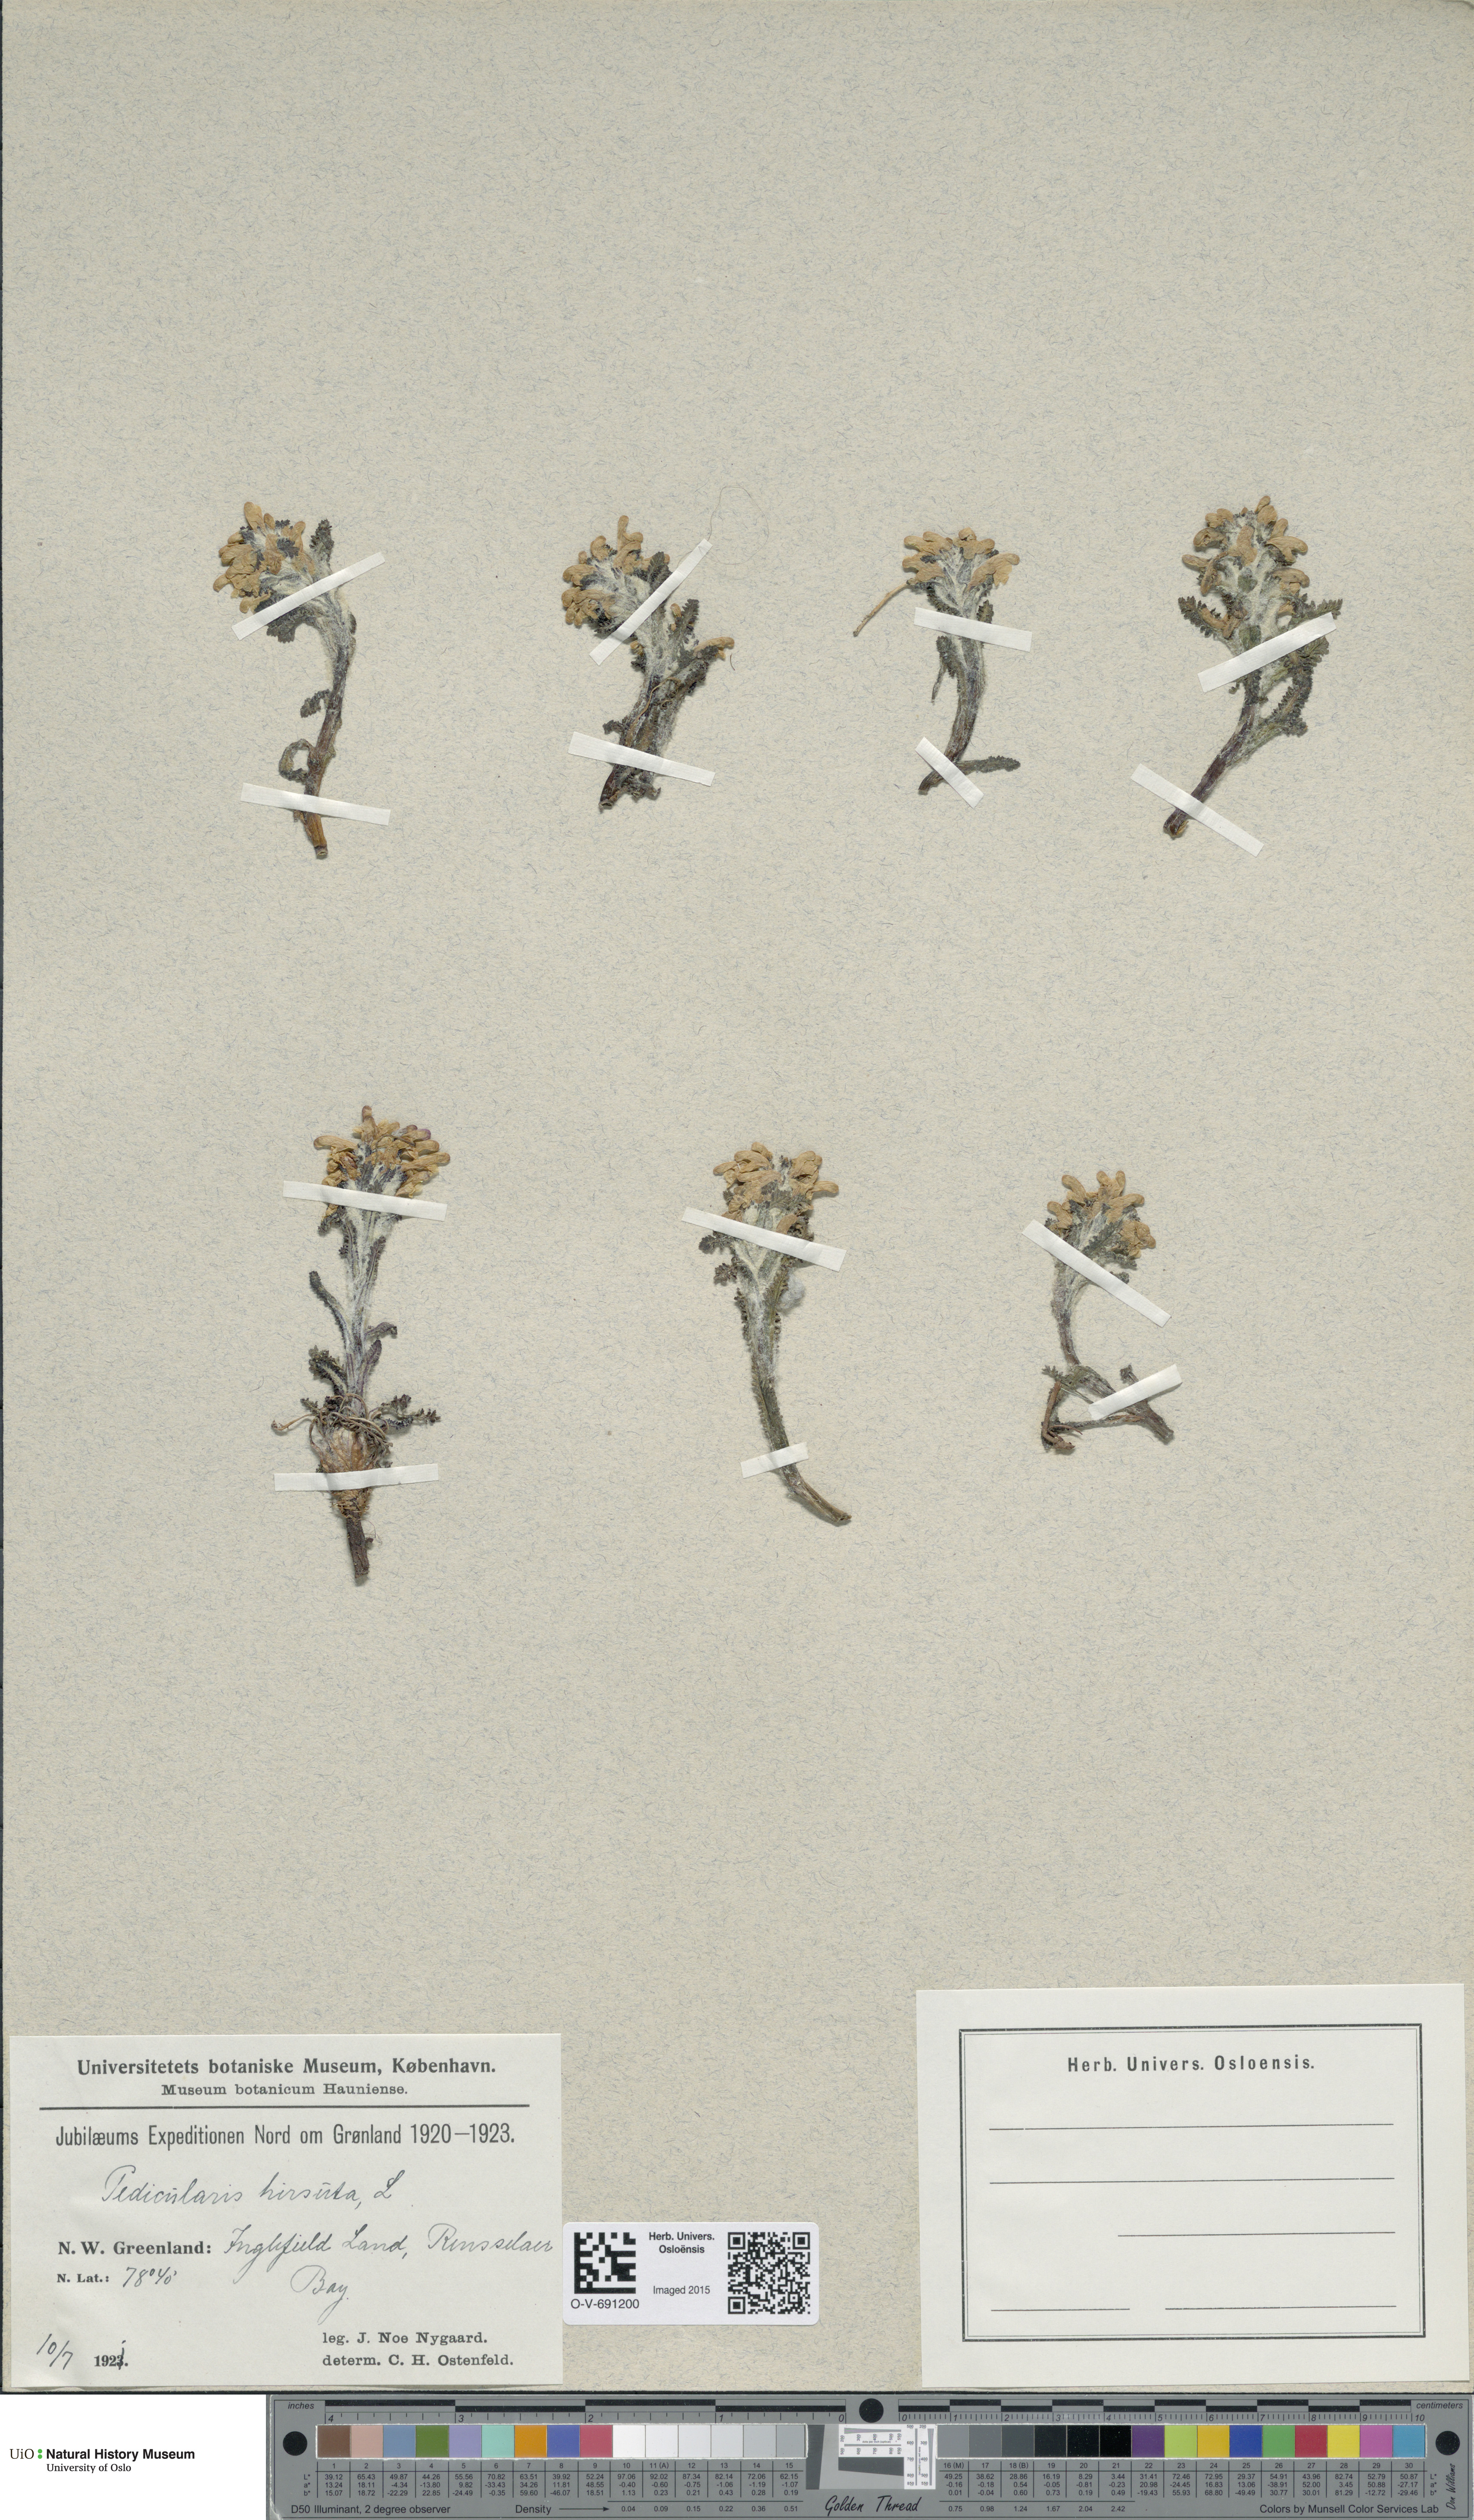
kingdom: Plantae
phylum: Tracheophyta
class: Magnoliopsida
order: Lamiales
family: Orobanchaceae
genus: Pedicularis
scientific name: Pedicularis hirsuta
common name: Hairy lousewort
